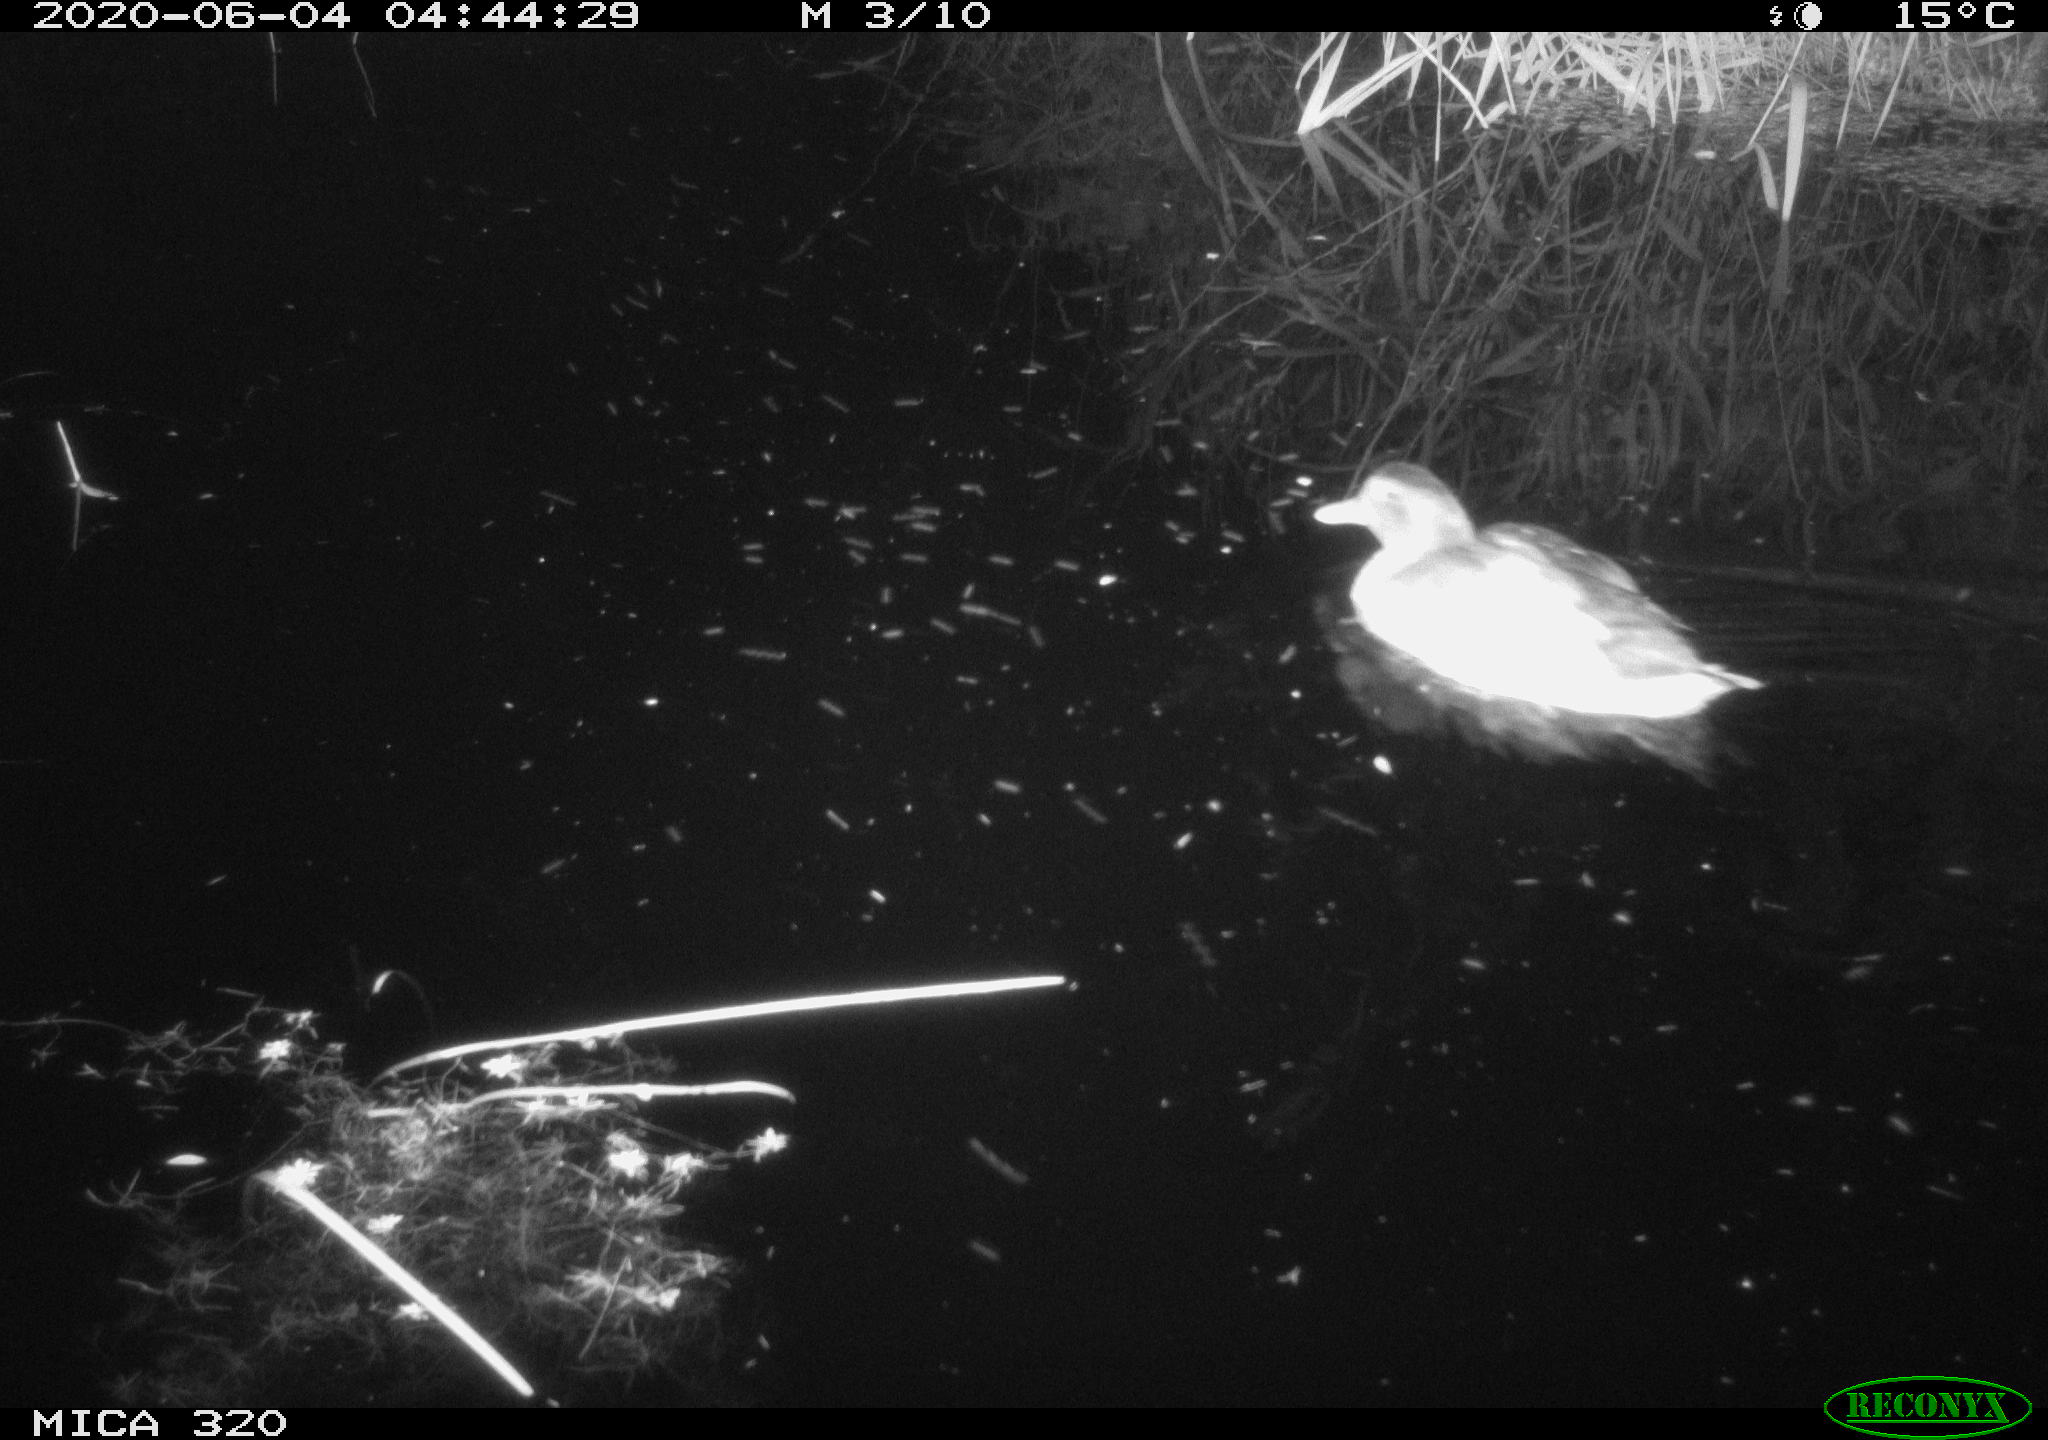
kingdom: Animalia
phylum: Chordata
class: Aves
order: Anseriformes
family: Anatidae
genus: Anas
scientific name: Anas platyrhynchos
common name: Mallard
